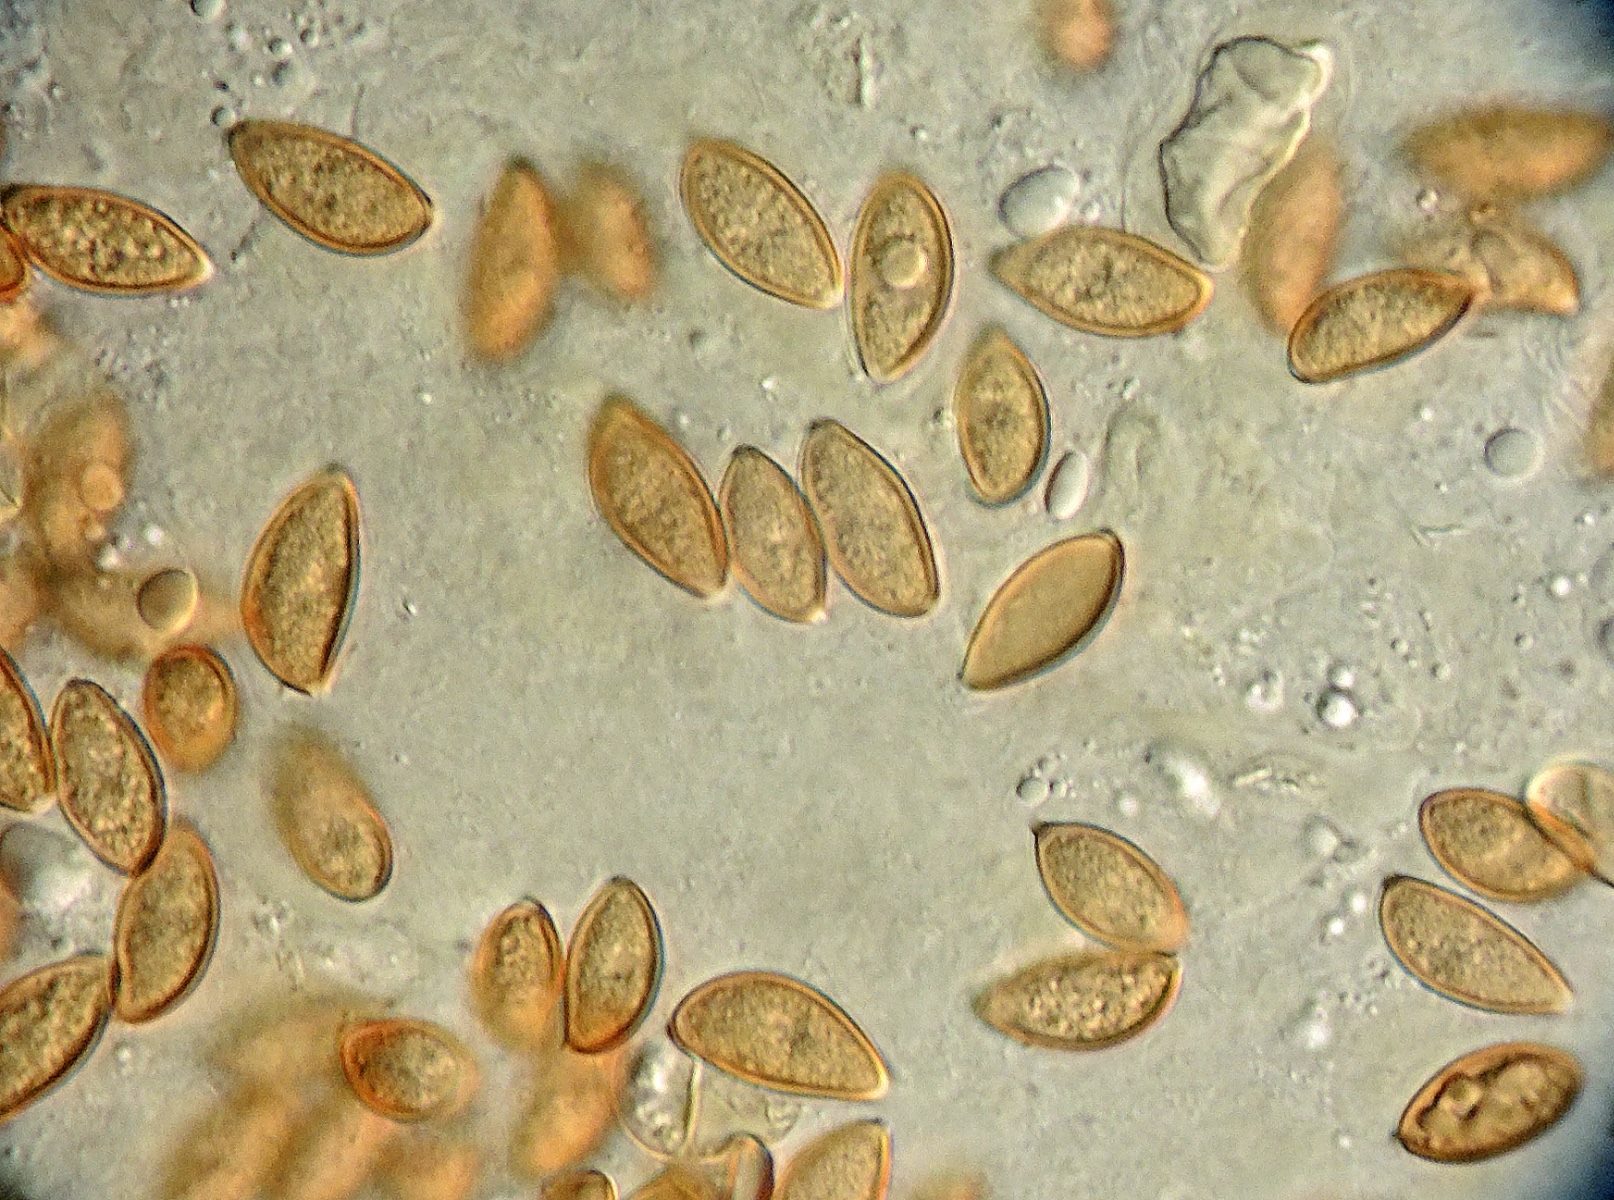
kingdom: Fungi
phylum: Basidiomycota
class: Agaricomycetes
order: Agaricales
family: Strophariaceae
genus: Hypholoma
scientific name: Hypholoma myosotis
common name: slimet svovlhat
